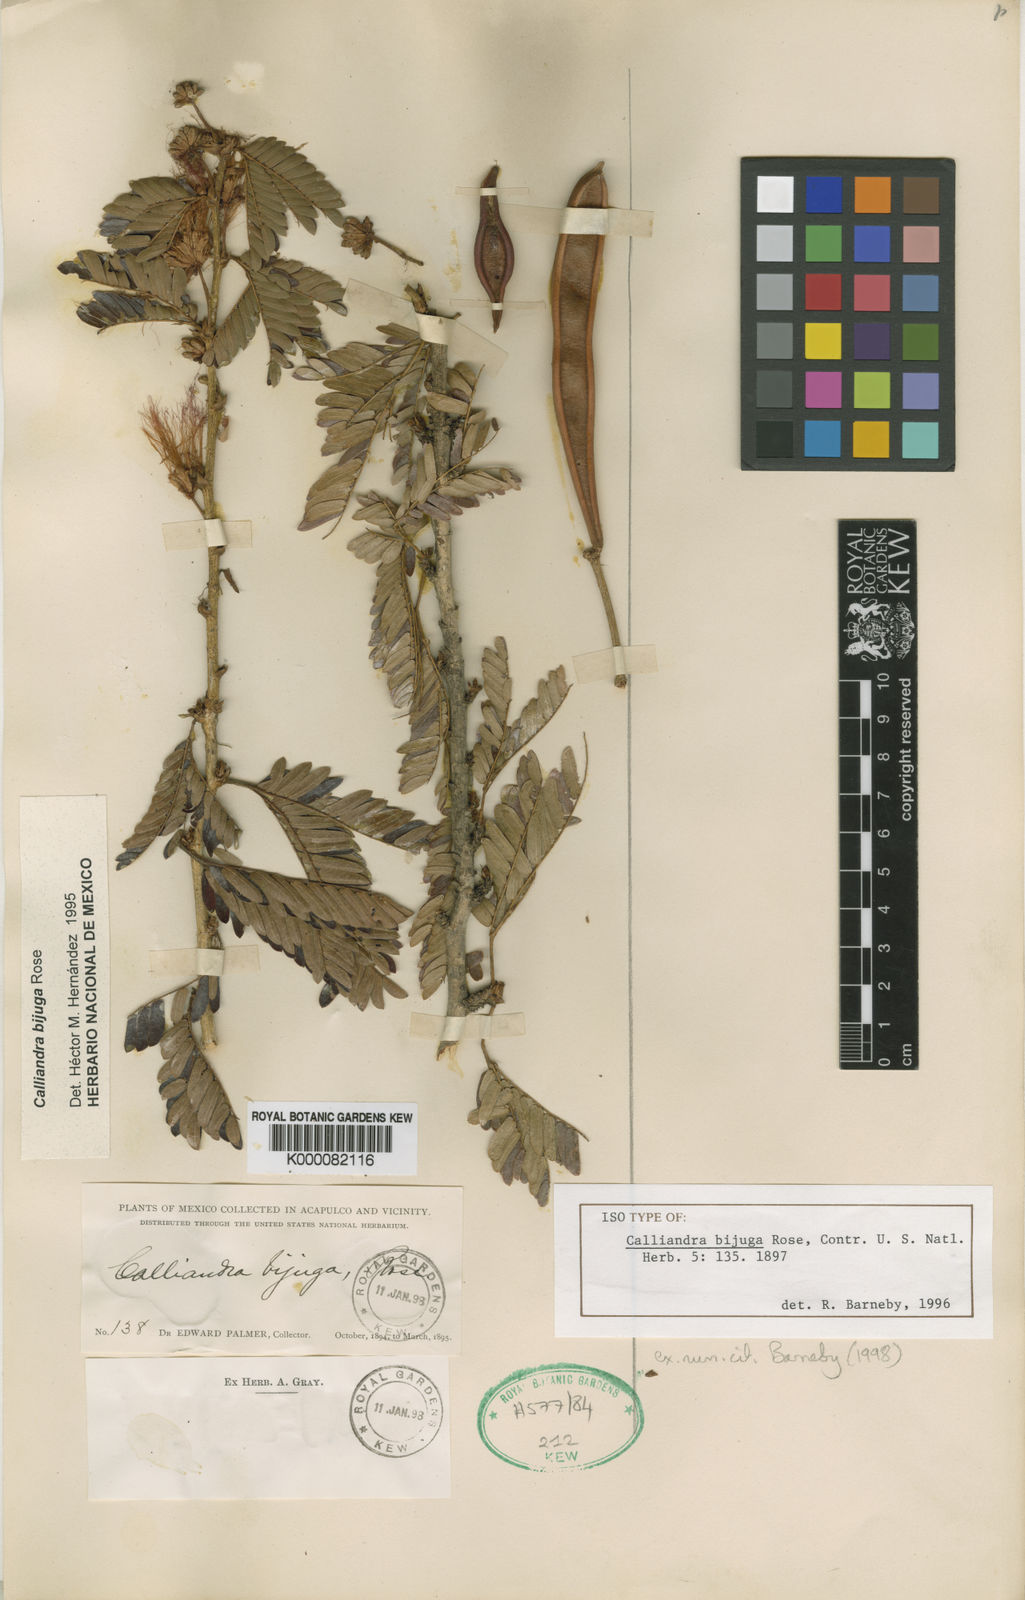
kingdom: Plantae
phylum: Tracheophyta
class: Magnoliopsida
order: Fabales
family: Fabaceae
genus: Calliandra
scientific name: Calliandra bijuga
